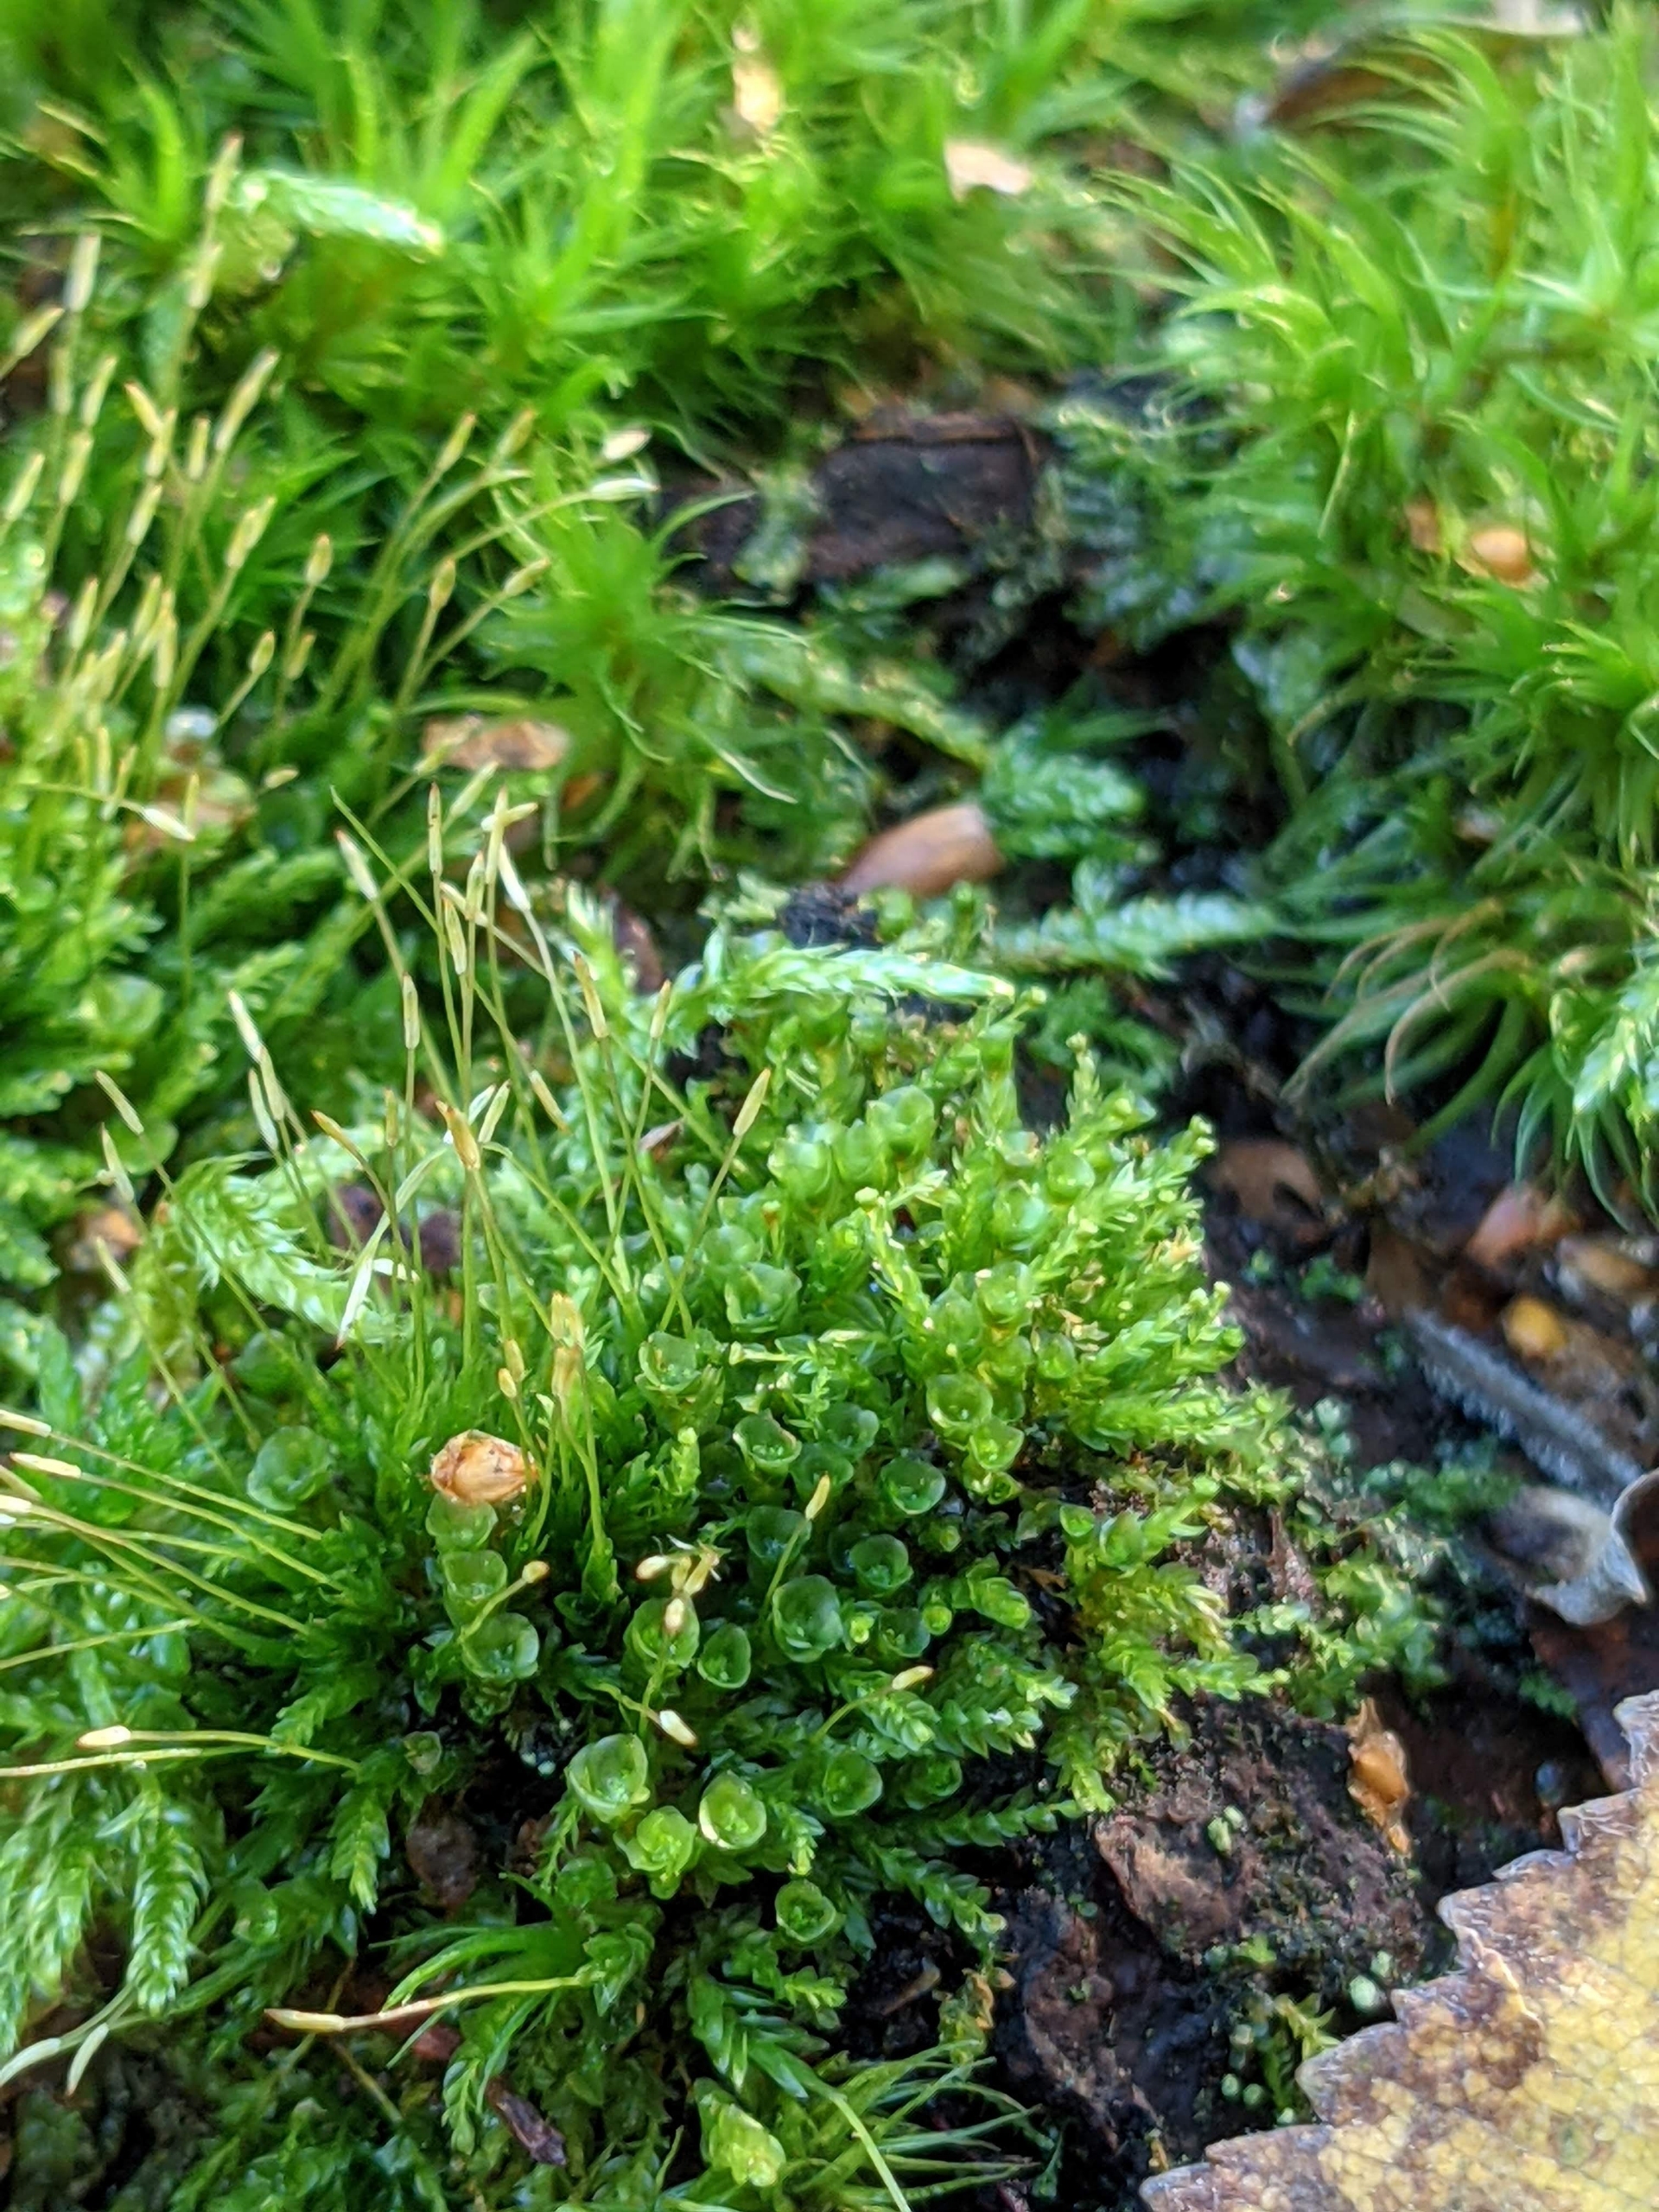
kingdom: Plantae
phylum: Bryophyta
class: Polytrichopsida
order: Tetraphidales
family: Tetraphidaceae
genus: Tetraphis
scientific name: Tetraphis pellucida
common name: Almindelig firtand
